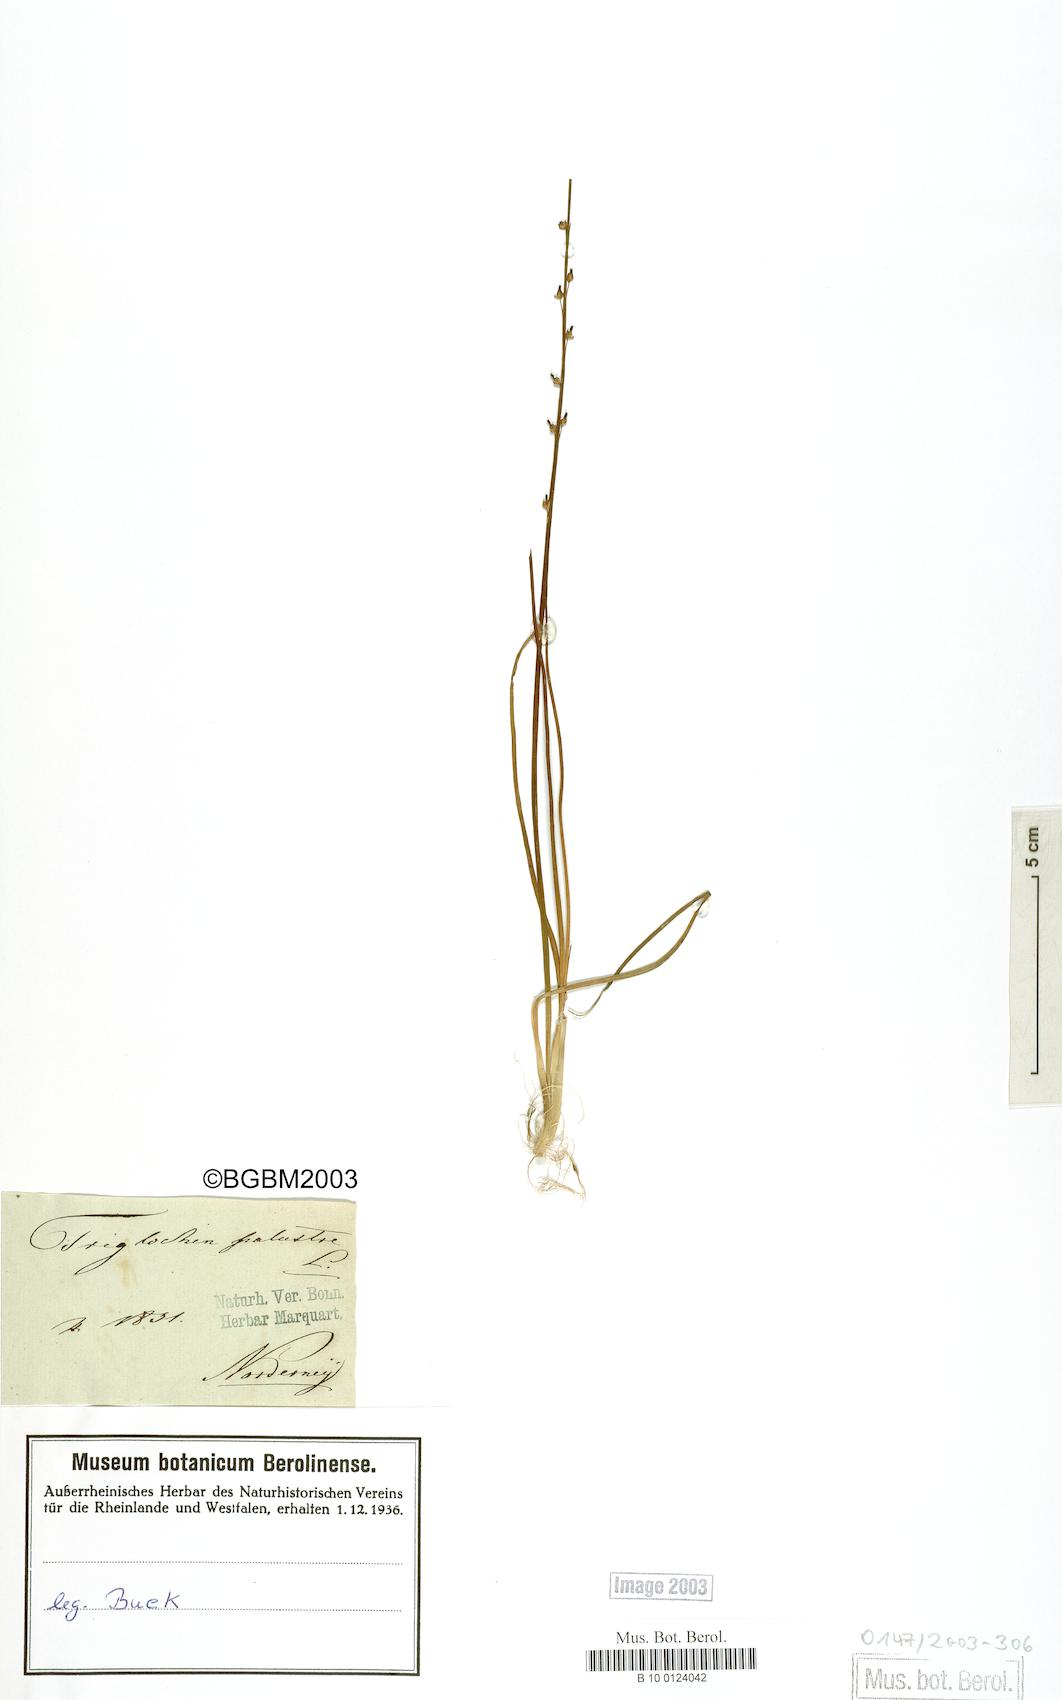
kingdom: Plantae
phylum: Tracheophyta
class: Liliopsida
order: Alismatales
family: Juncaginaceae
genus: Triglochin
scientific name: Triglochin palustris
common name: Marsh arrowgrass
